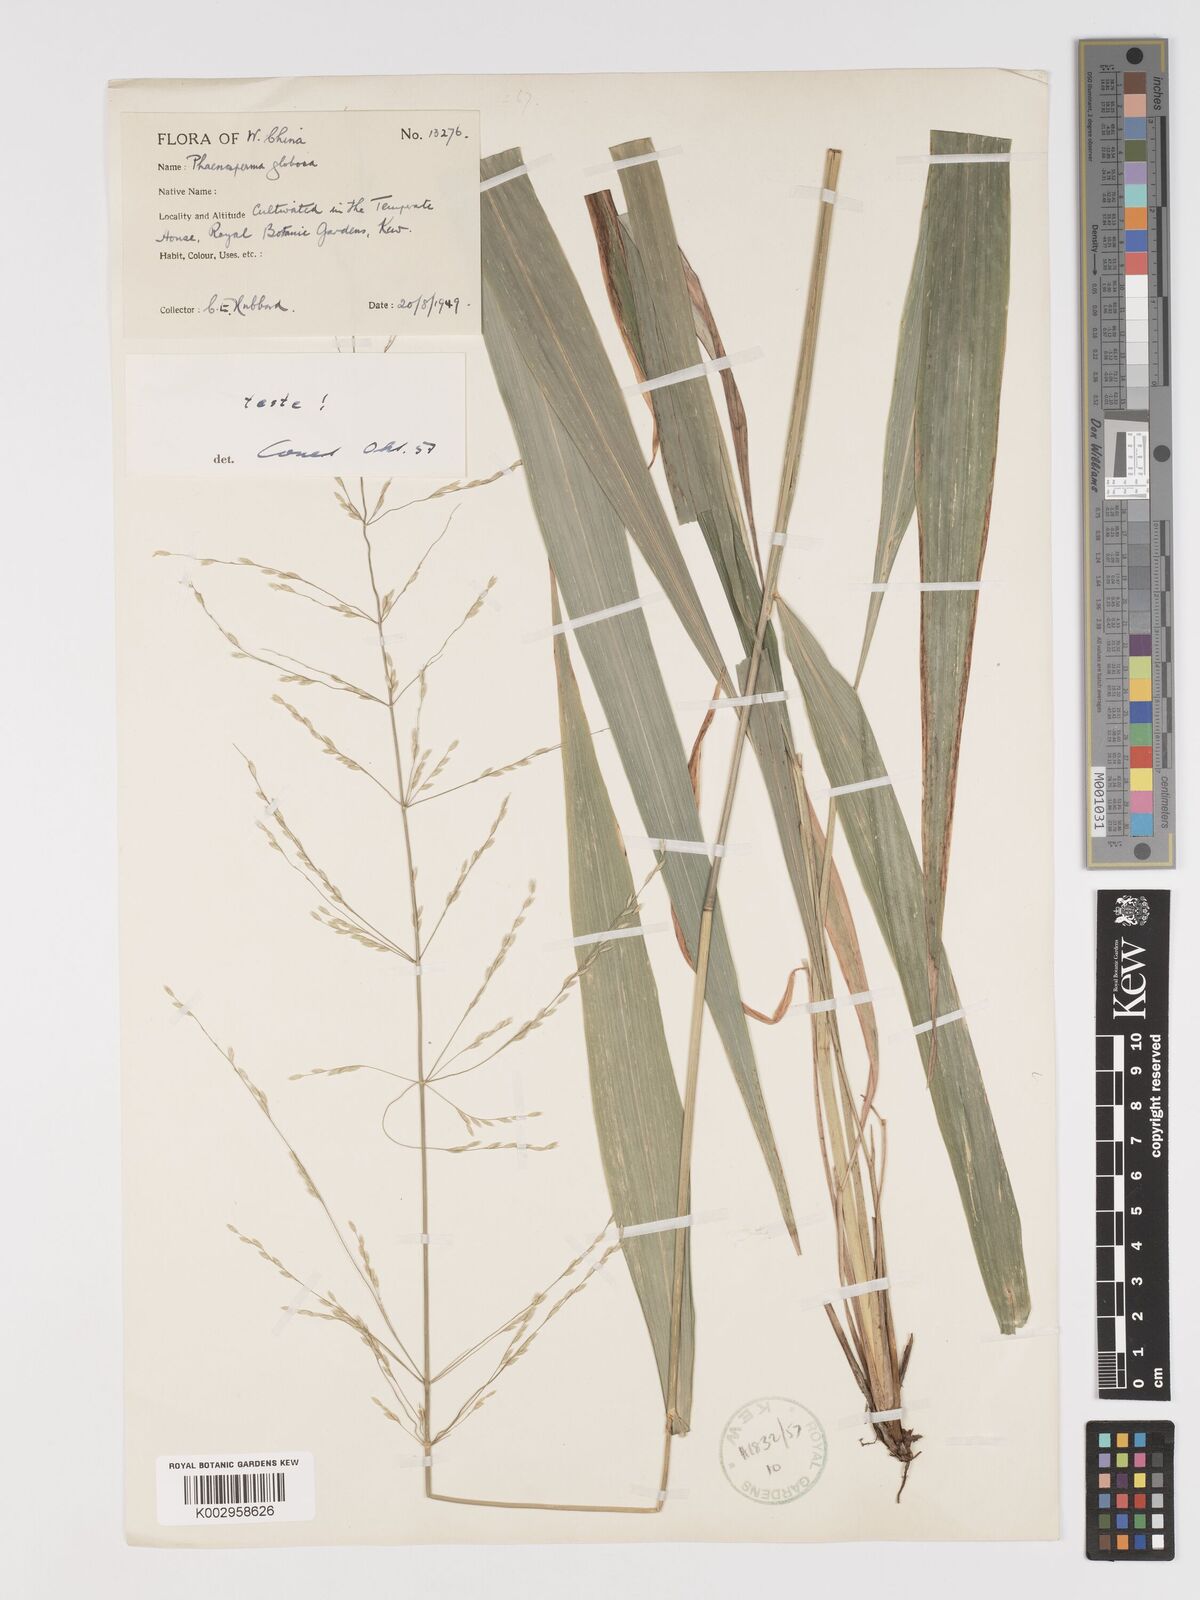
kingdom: Plantae
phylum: Tracheophyta
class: Liliopsida
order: Poales
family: Poaceae
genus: Phaenosperma
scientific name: Phaenosperma globosum
